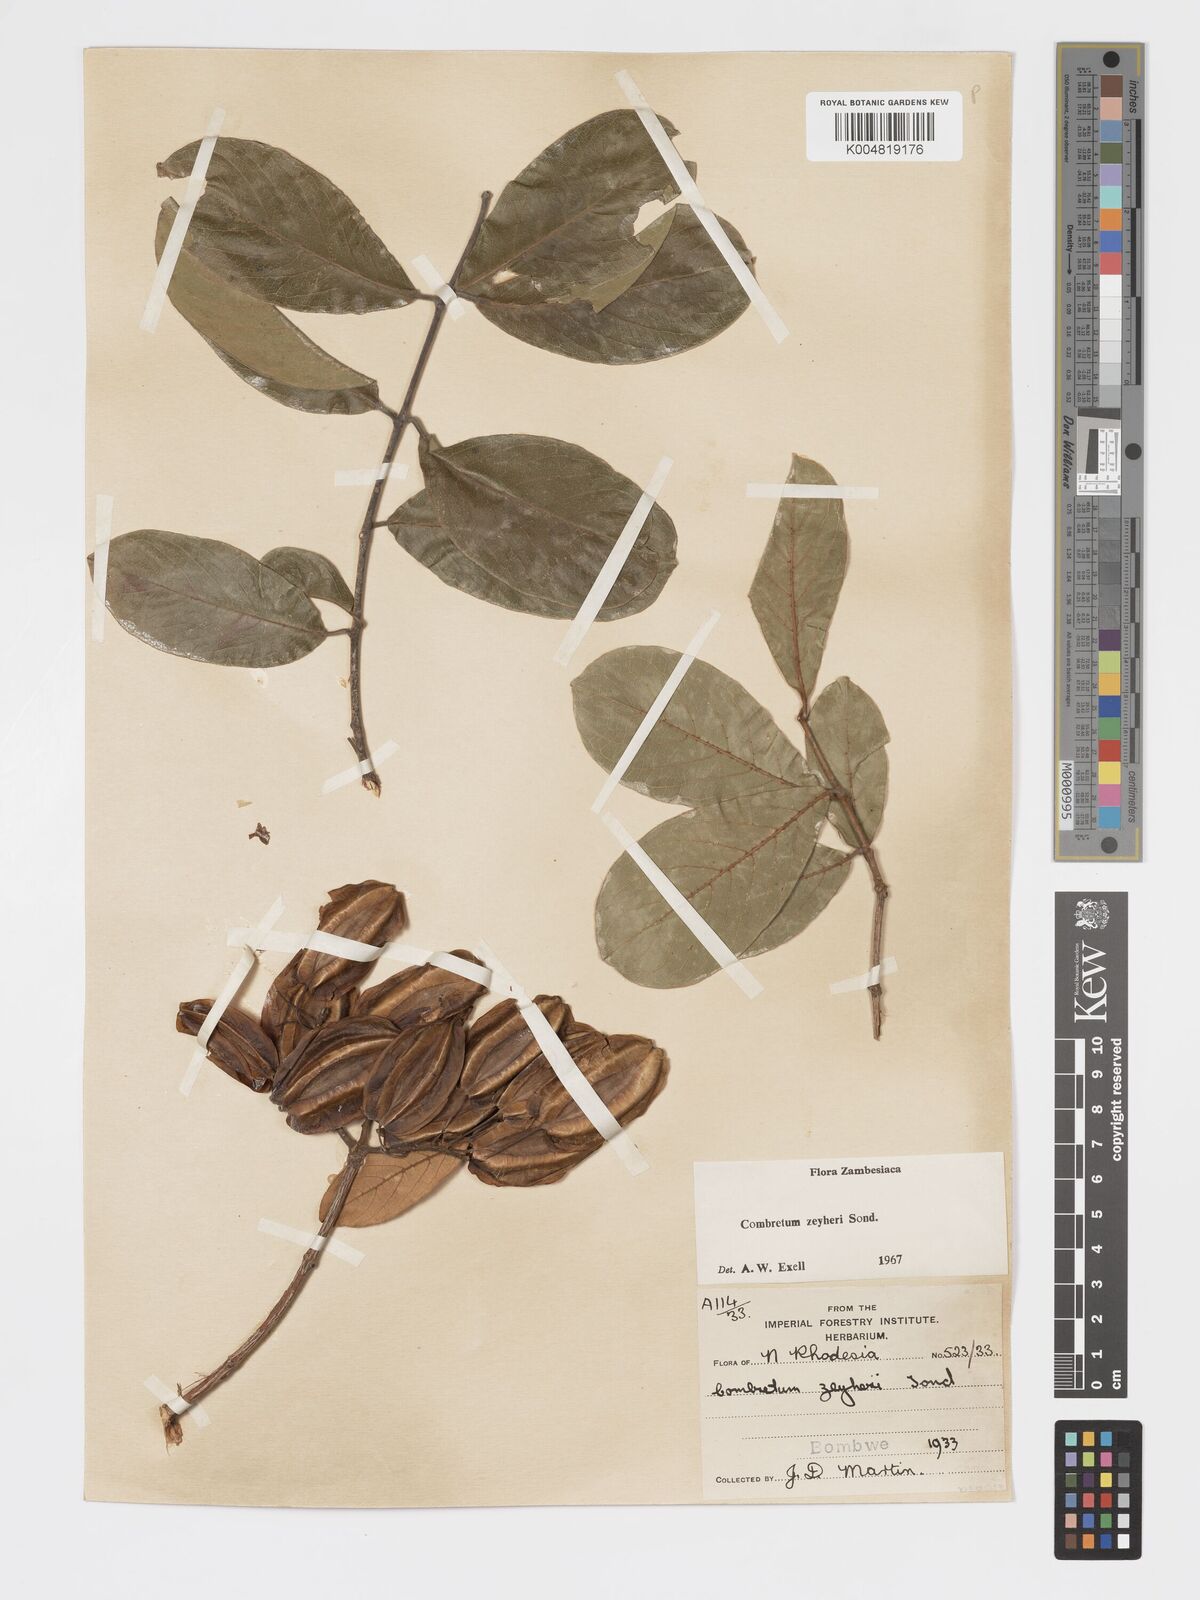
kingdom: Plantae
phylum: Tracheophyta
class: Magnoliopsida
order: Myrtales
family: Combretaceae
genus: Combretum
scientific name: Combretum zeyheri
